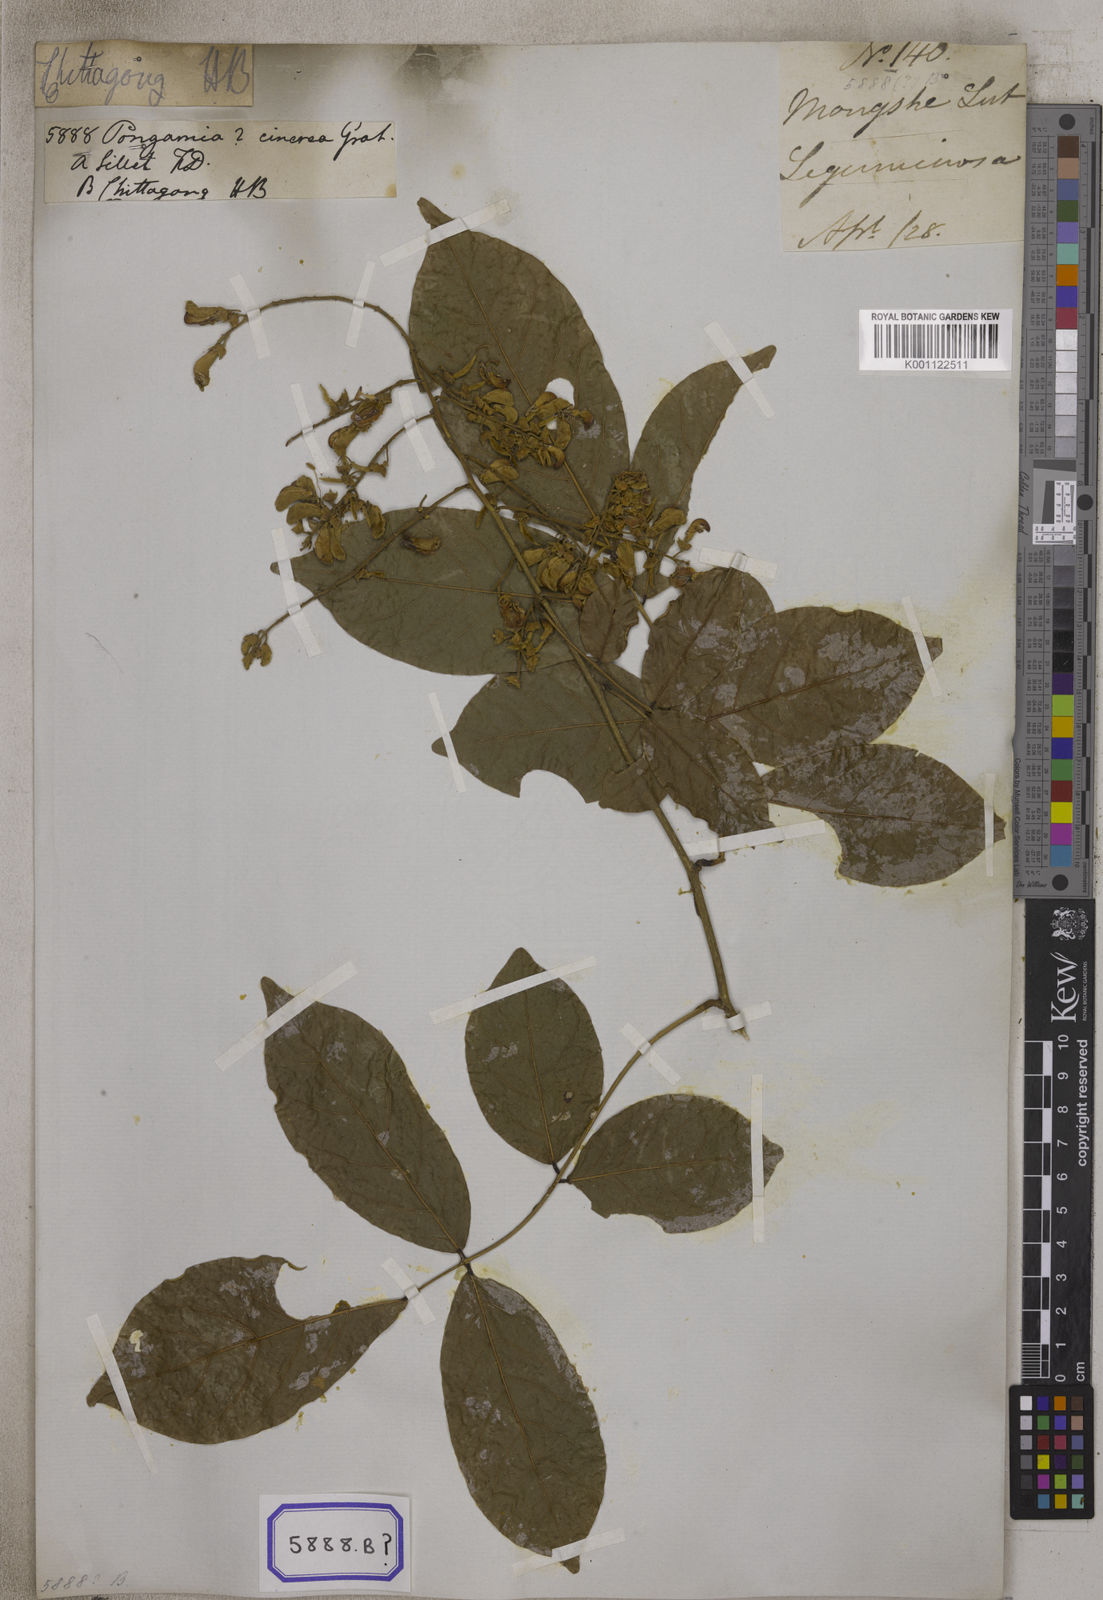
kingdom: Plantae
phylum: Tracheophyta
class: Magnoliopsida
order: Fabales
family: Fabaceae
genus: Callerya
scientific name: Callerya cinerea
